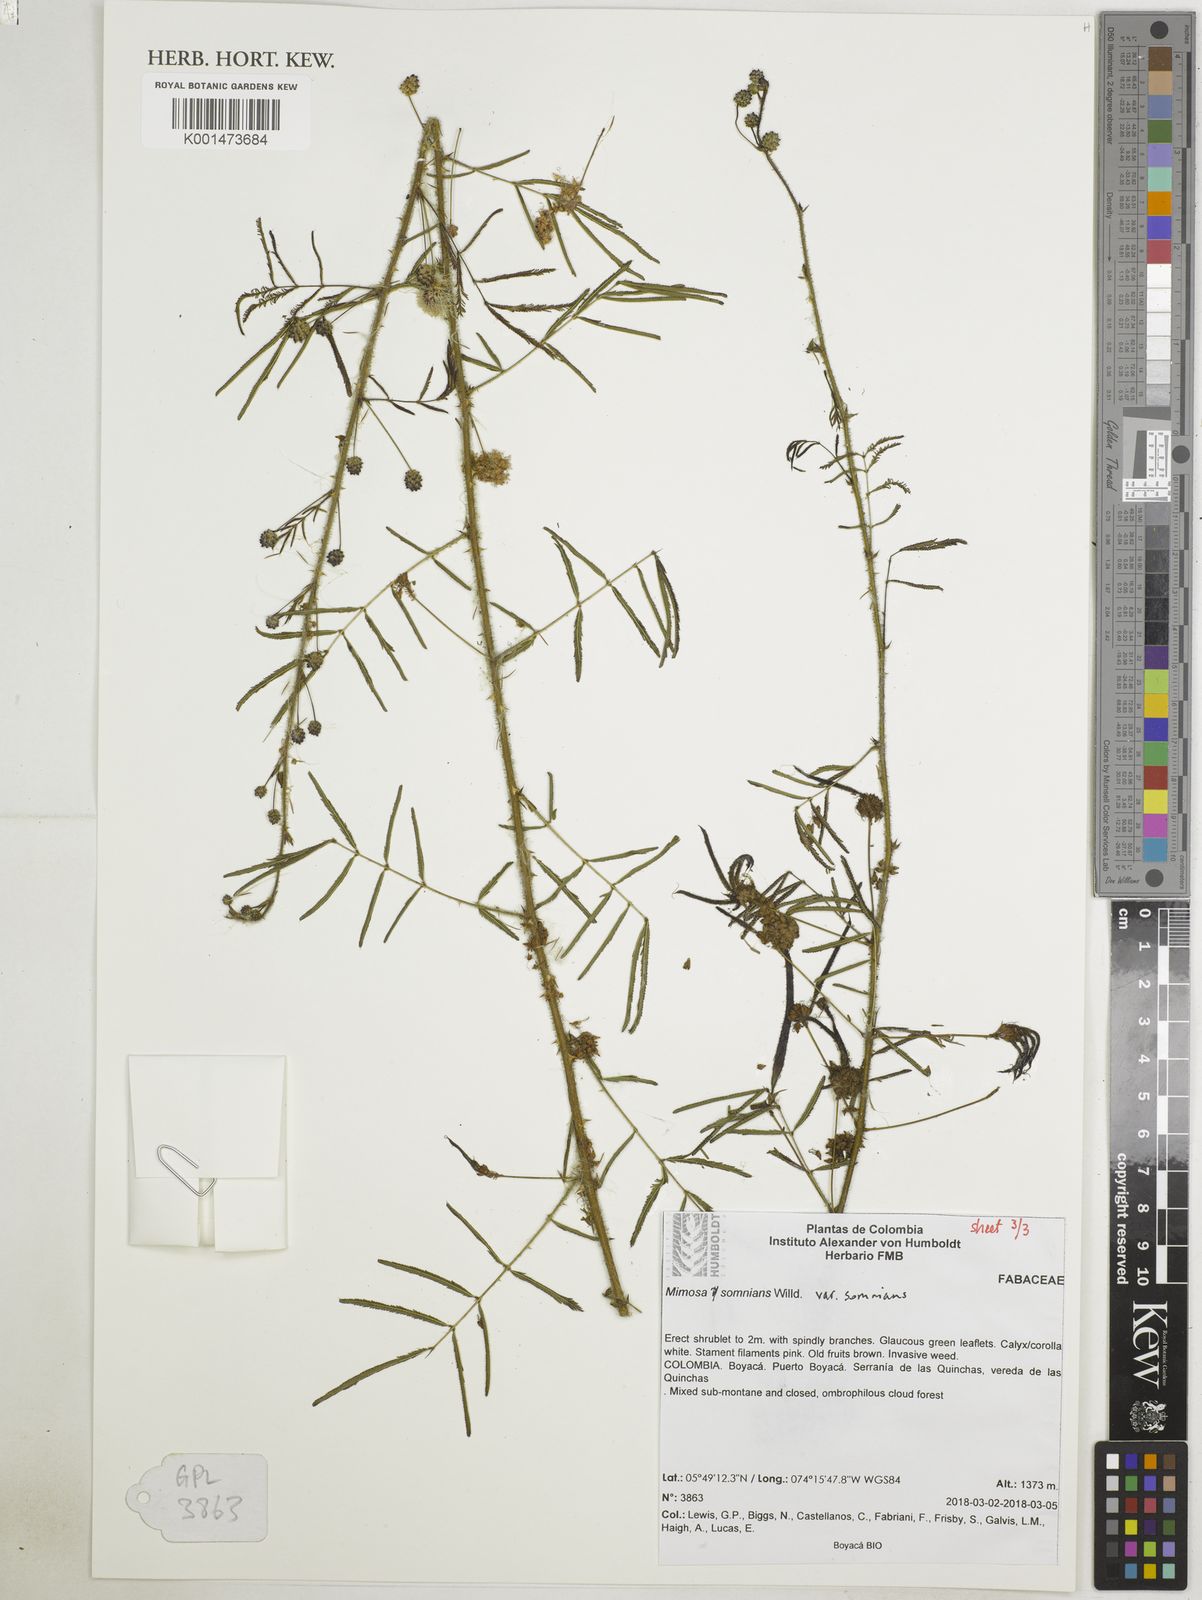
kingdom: Plantae
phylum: Tracheophyta
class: Magnoliopsida
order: Fabales
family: Fabaceae
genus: Mimosa
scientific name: Mimosa somnians
